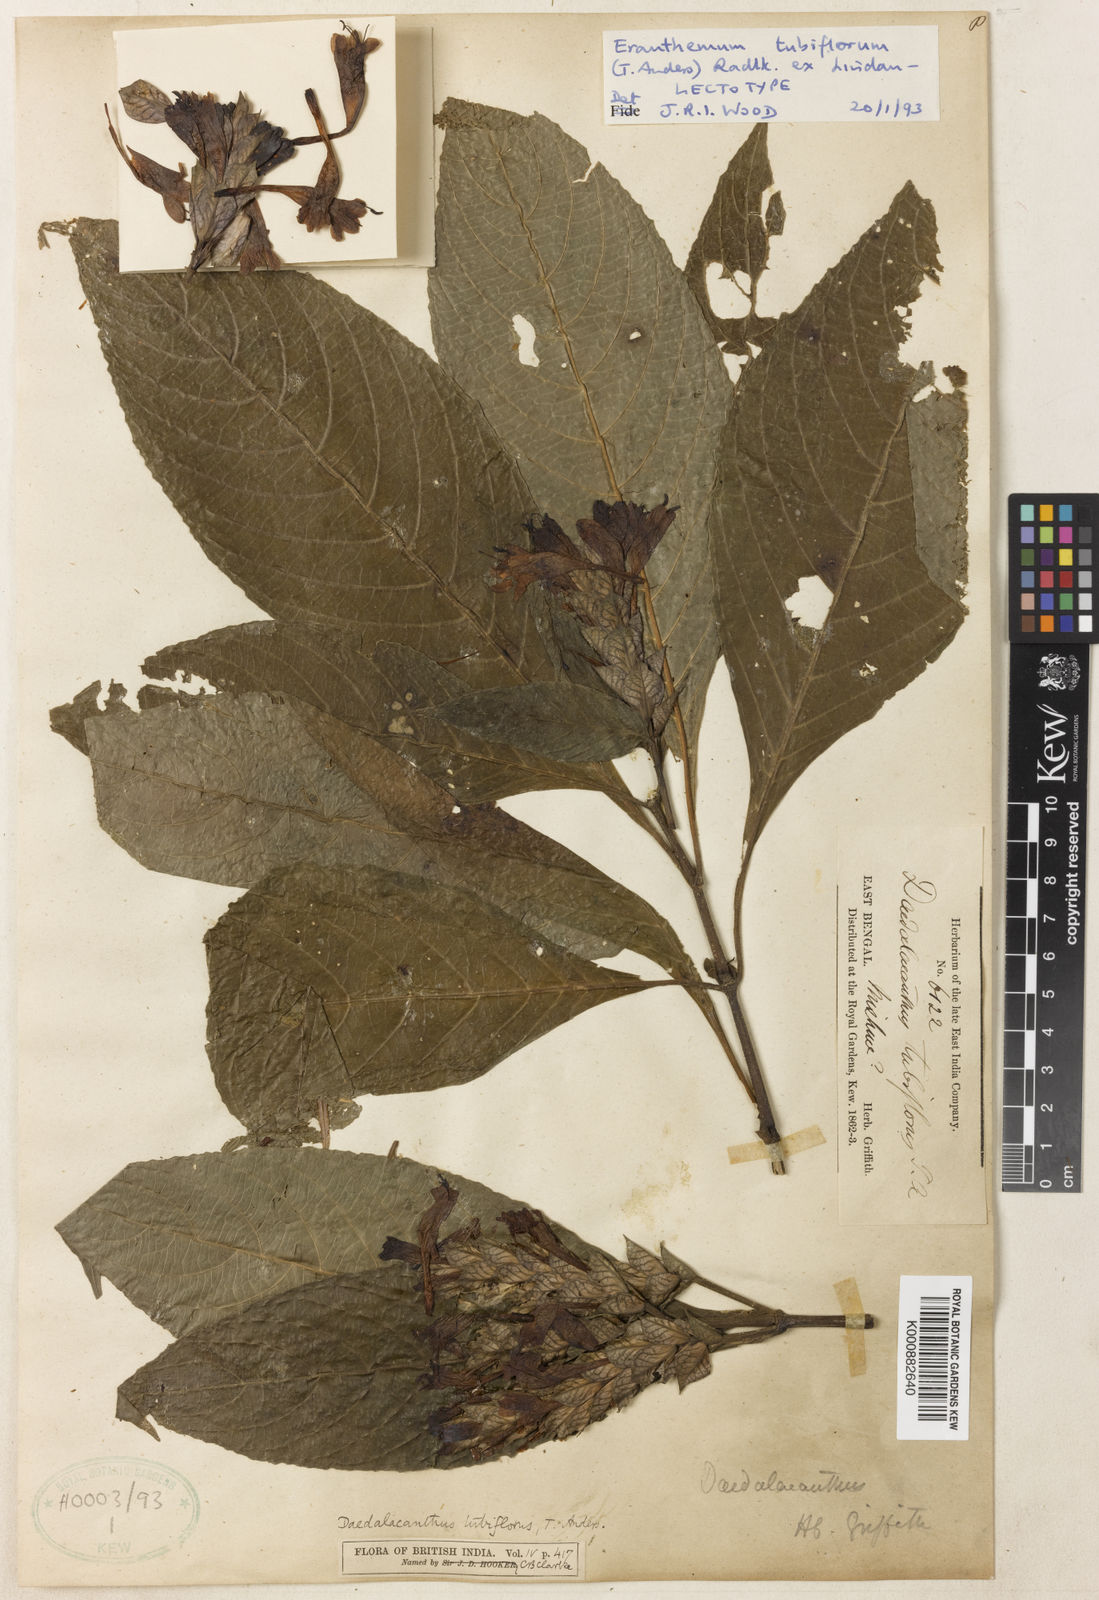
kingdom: Plantae
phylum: Tracheophyta
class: Magnoliopsida
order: Lamiales
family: Acanthaceae
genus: Eranthemum
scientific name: Eranthemum tubiflorum
